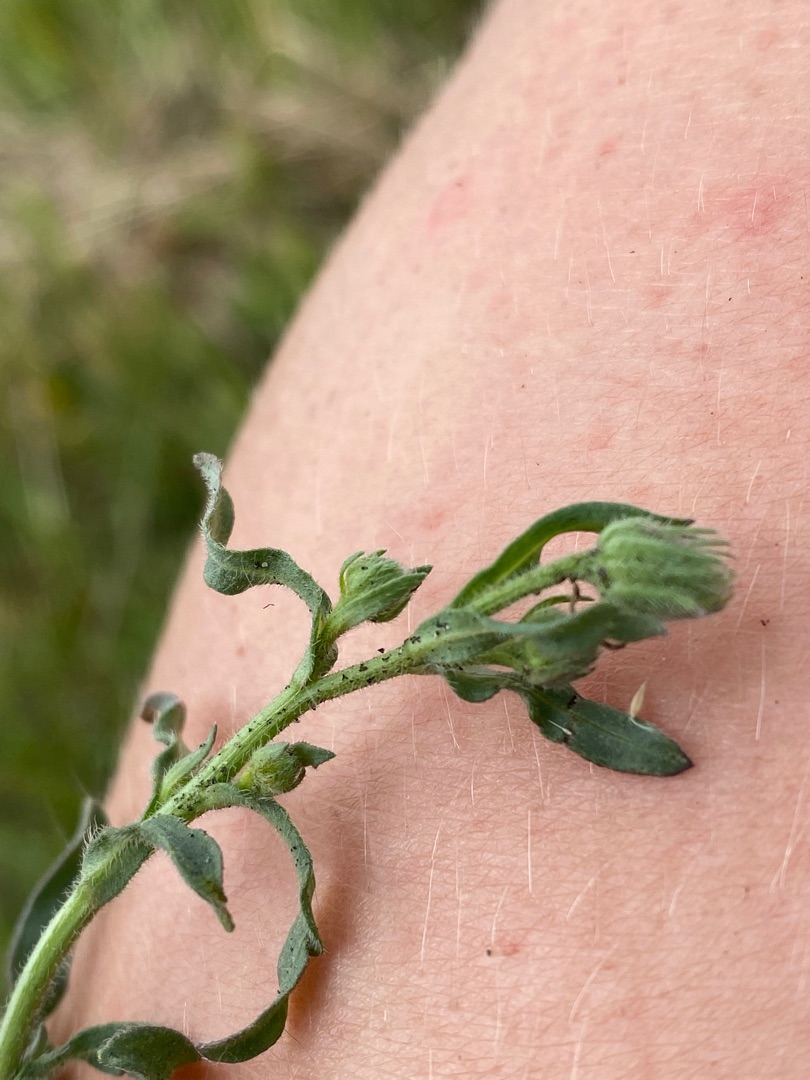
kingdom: Plantae
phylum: Tracheophyta
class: Magnoliopsida
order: Asterales
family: Asteraceae
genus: Erigeron
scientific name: Erigeron muralis
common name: Vreden bakkestjerne
